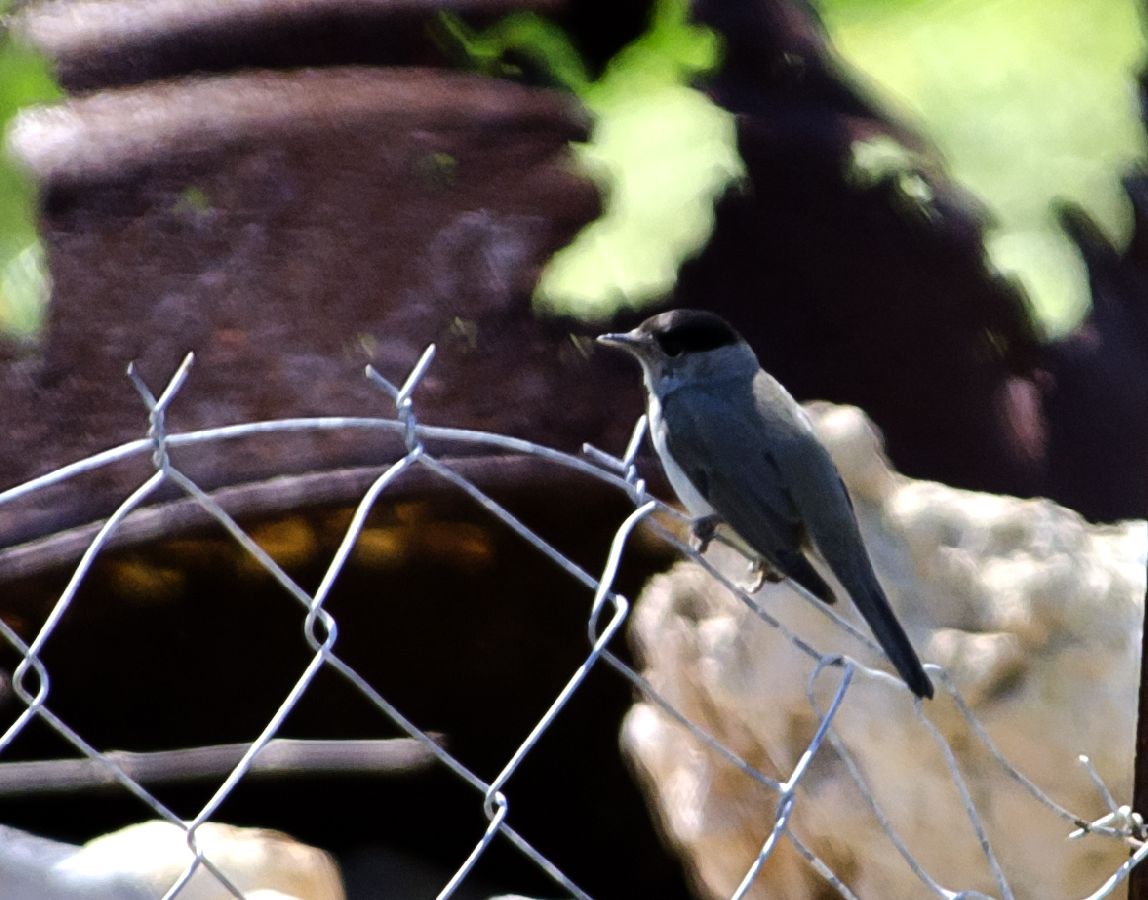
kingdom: Animalia
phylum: Chordata
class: Aves
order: Passeriformes
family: Sylviidae
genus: Sylvia
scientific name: Sylvia atricapilla
